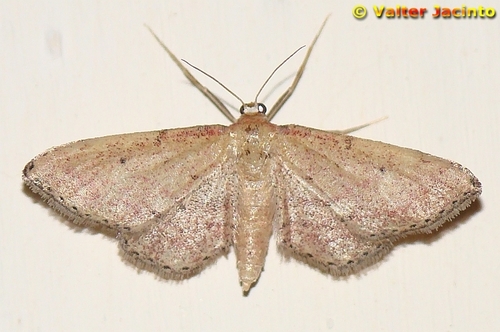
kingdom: Animalia
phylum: Arthropoda
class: Insecta
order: Lepidoptera
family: Geometridae
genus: Idaea
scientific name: Idaea infirmaria
